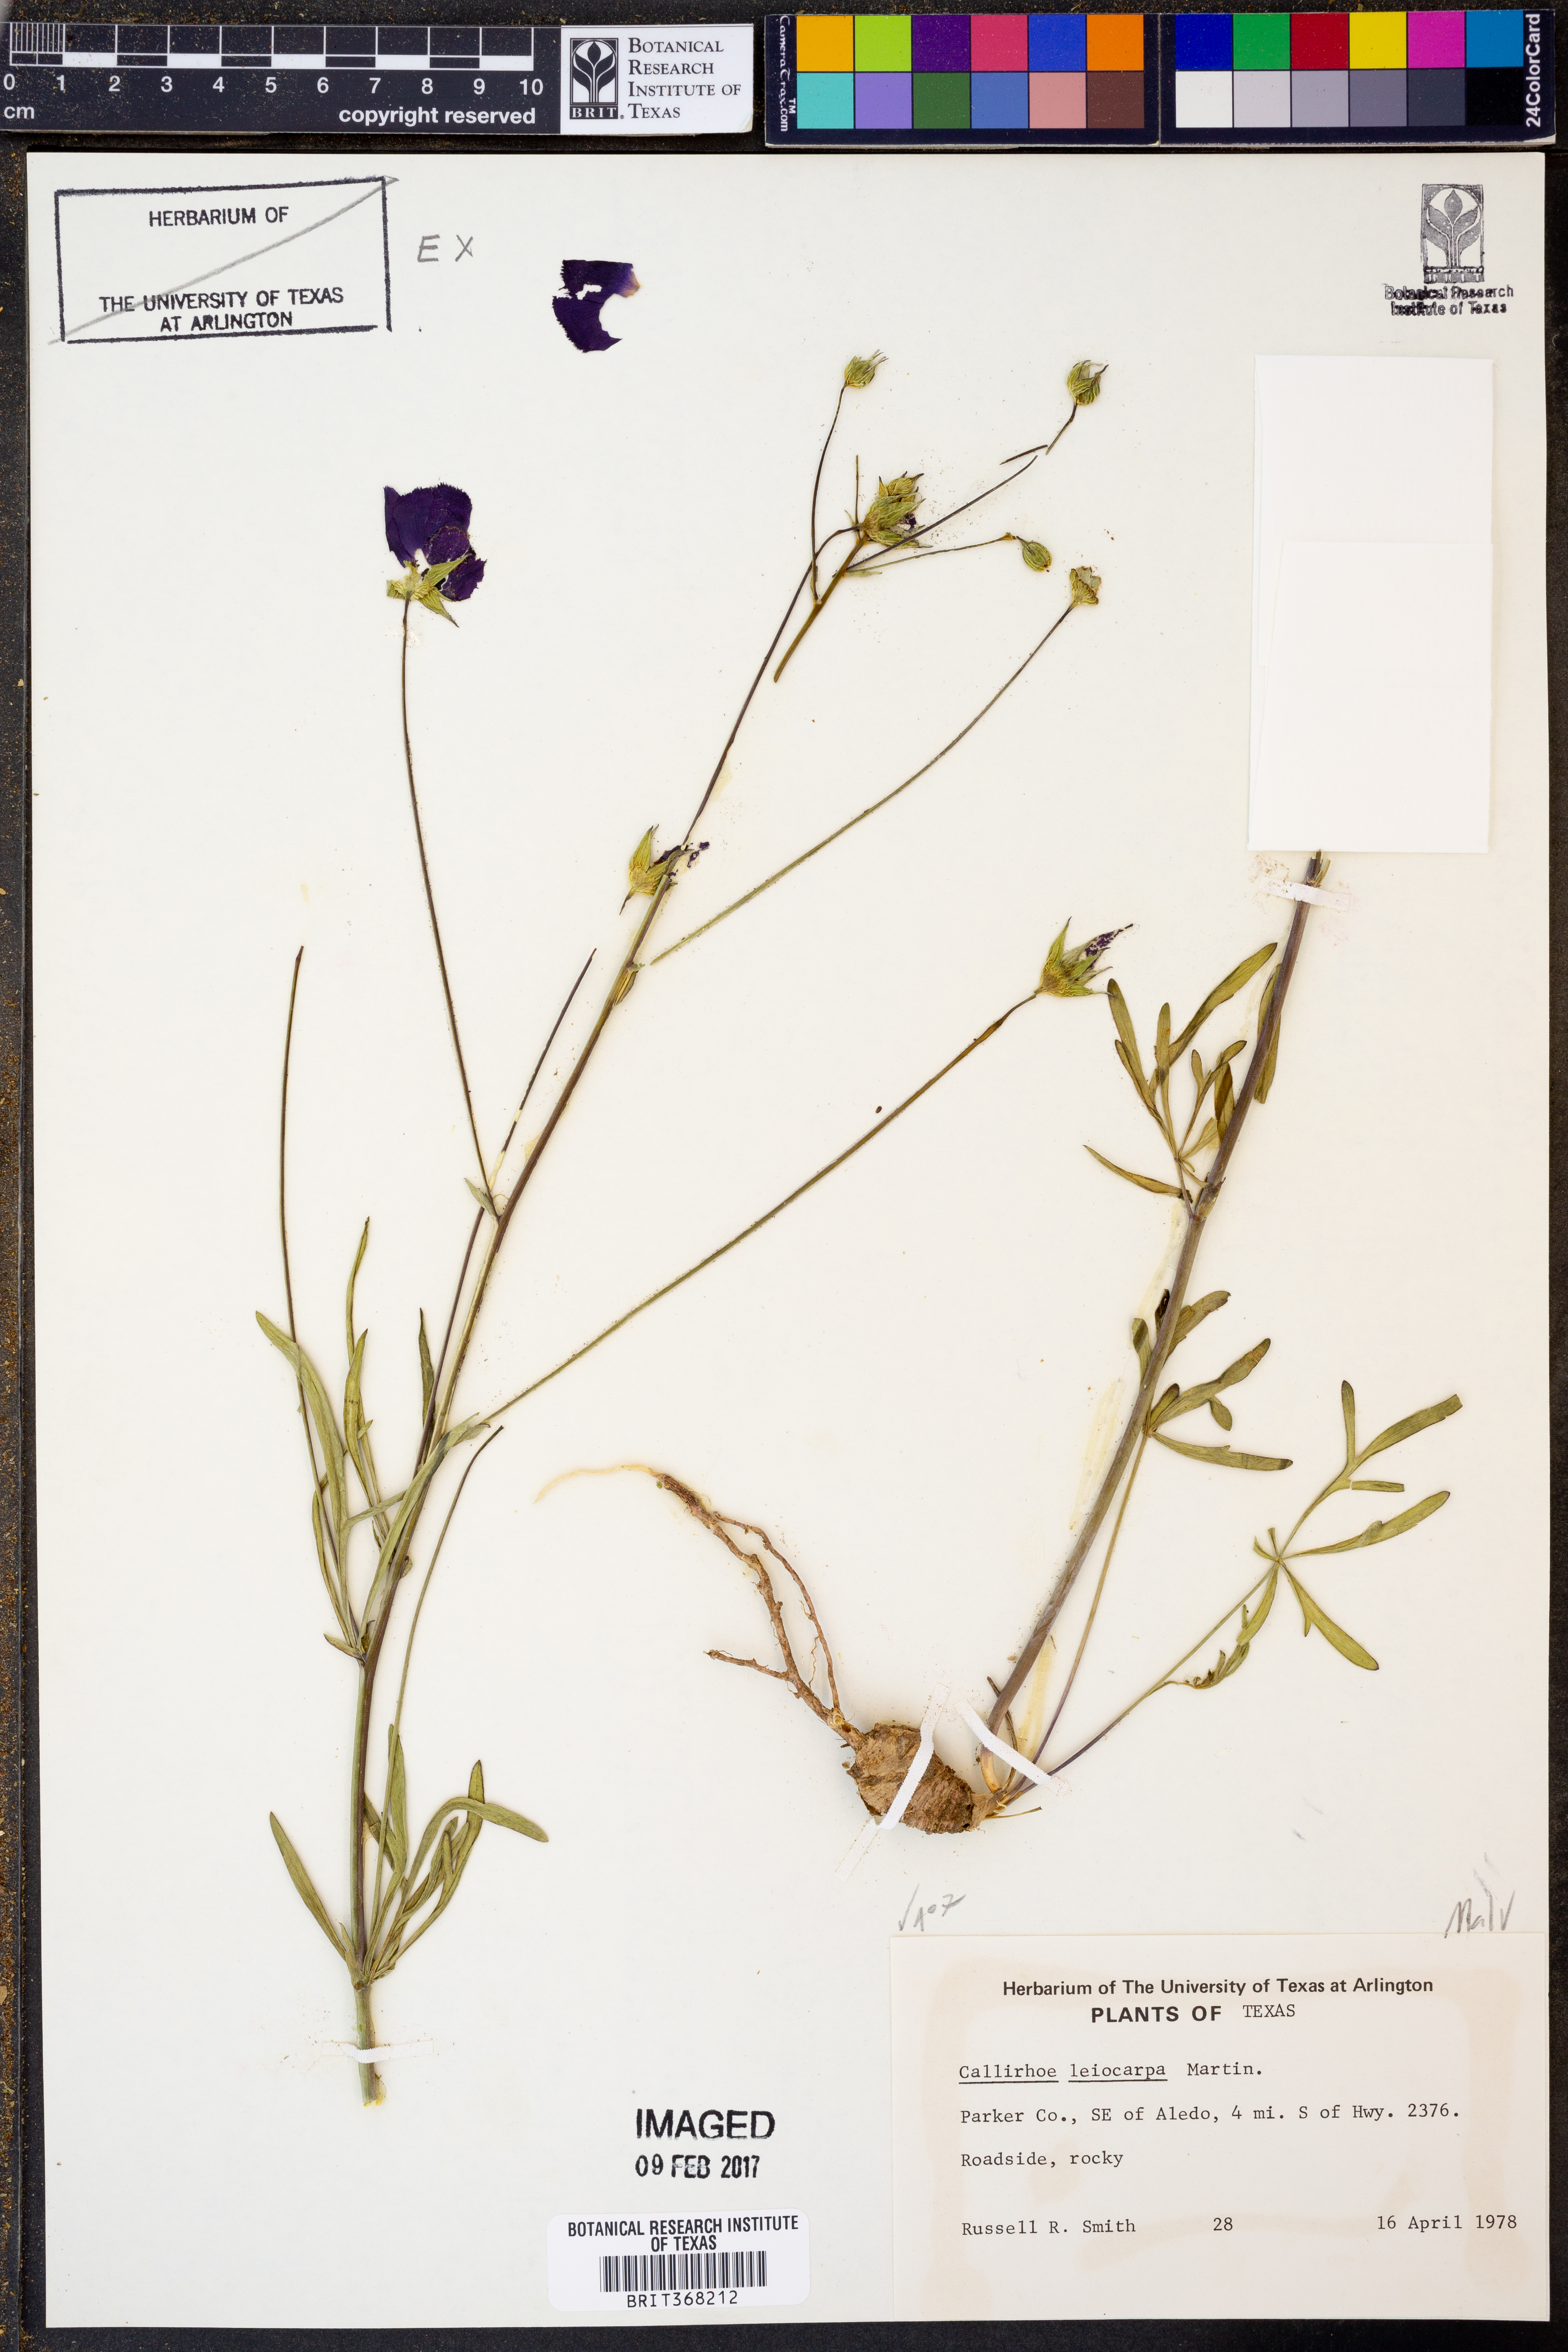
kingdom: Plantae
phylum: Tracheophyta
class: Magnoliopsida
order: Malvales
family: Malvaceae
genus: Callirhoe
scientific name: Callirhoe leiocarpa
